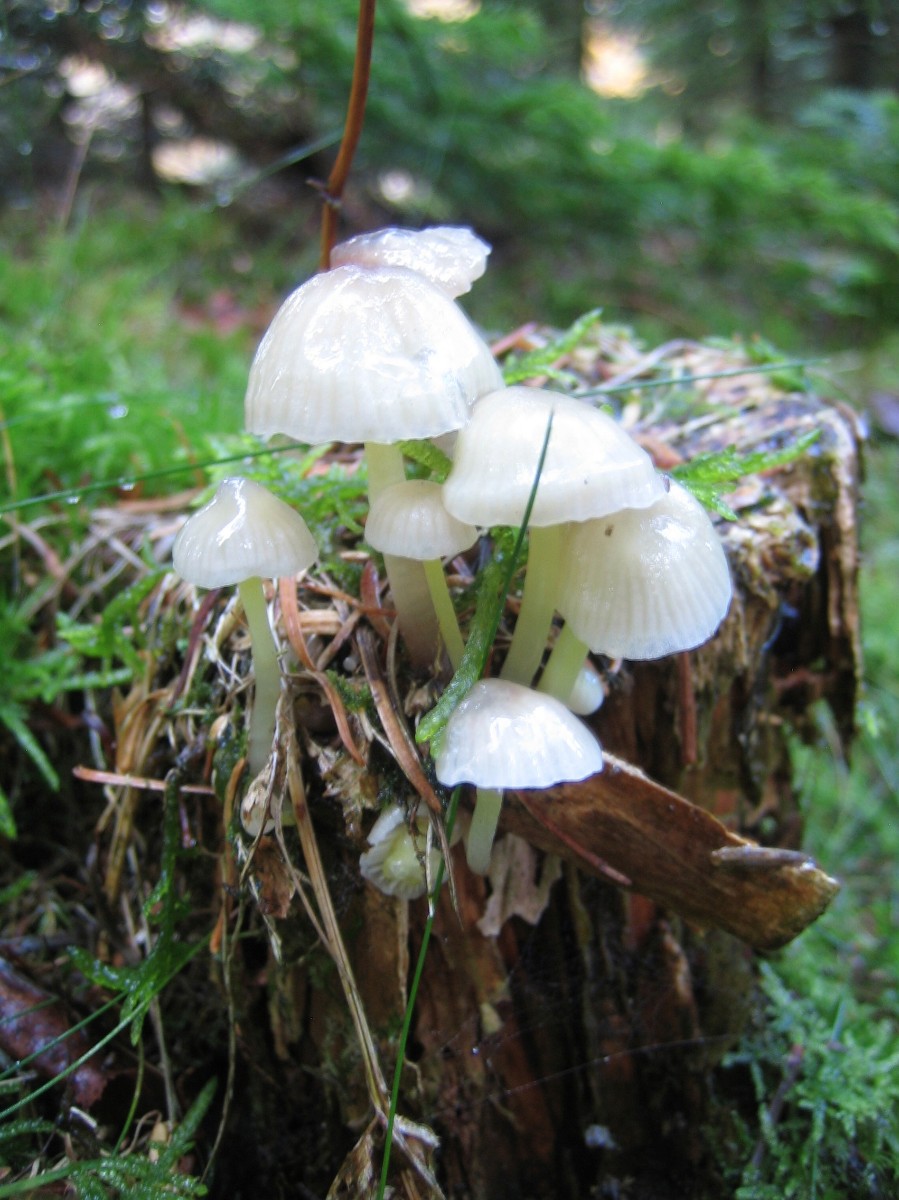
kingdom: Fungi
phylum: Basidiomycota
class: Agaricomycetes
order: Agaricales
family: Mycenaceae
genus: Mycena
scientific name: Mycena epipterygia
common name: gulstokket huesvamp
